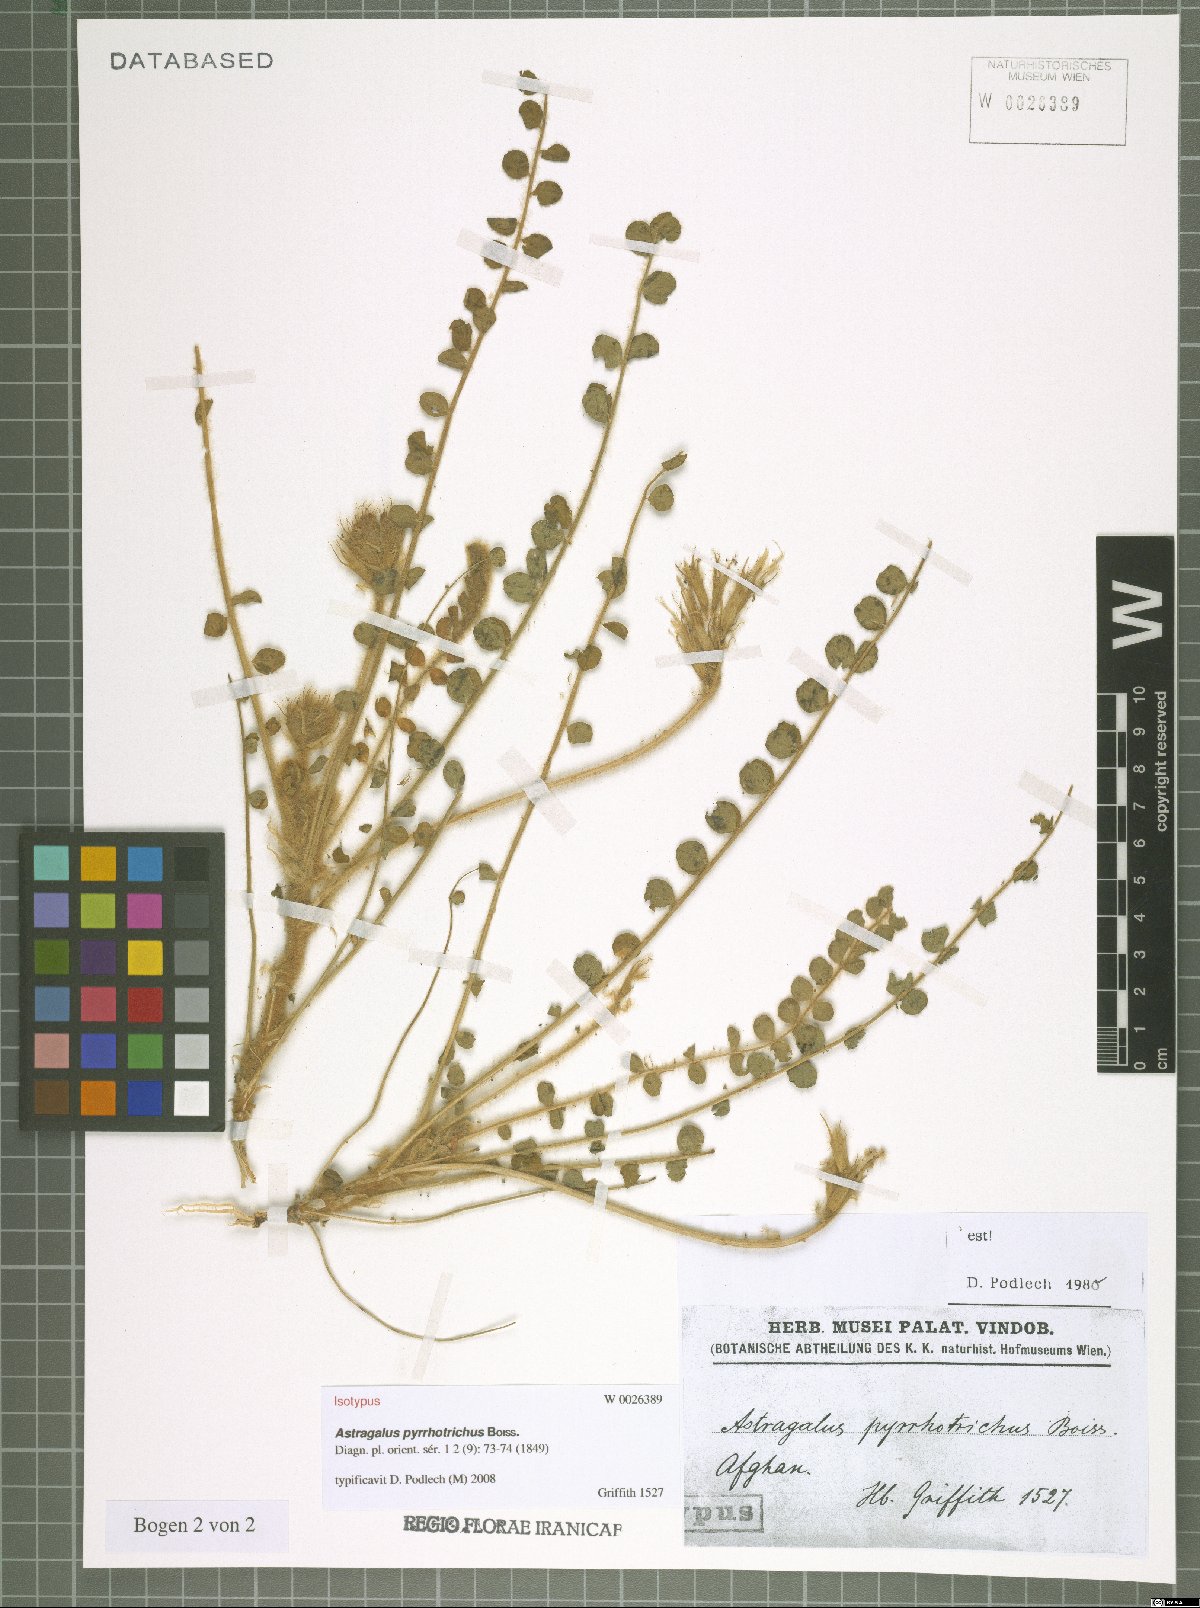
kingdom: Plantae
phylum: Tracheophyta
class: Magnoliopsida
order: Fabales
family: Fabaceae
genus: Astragalus
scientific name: Astragalus pyrrhotrichus
